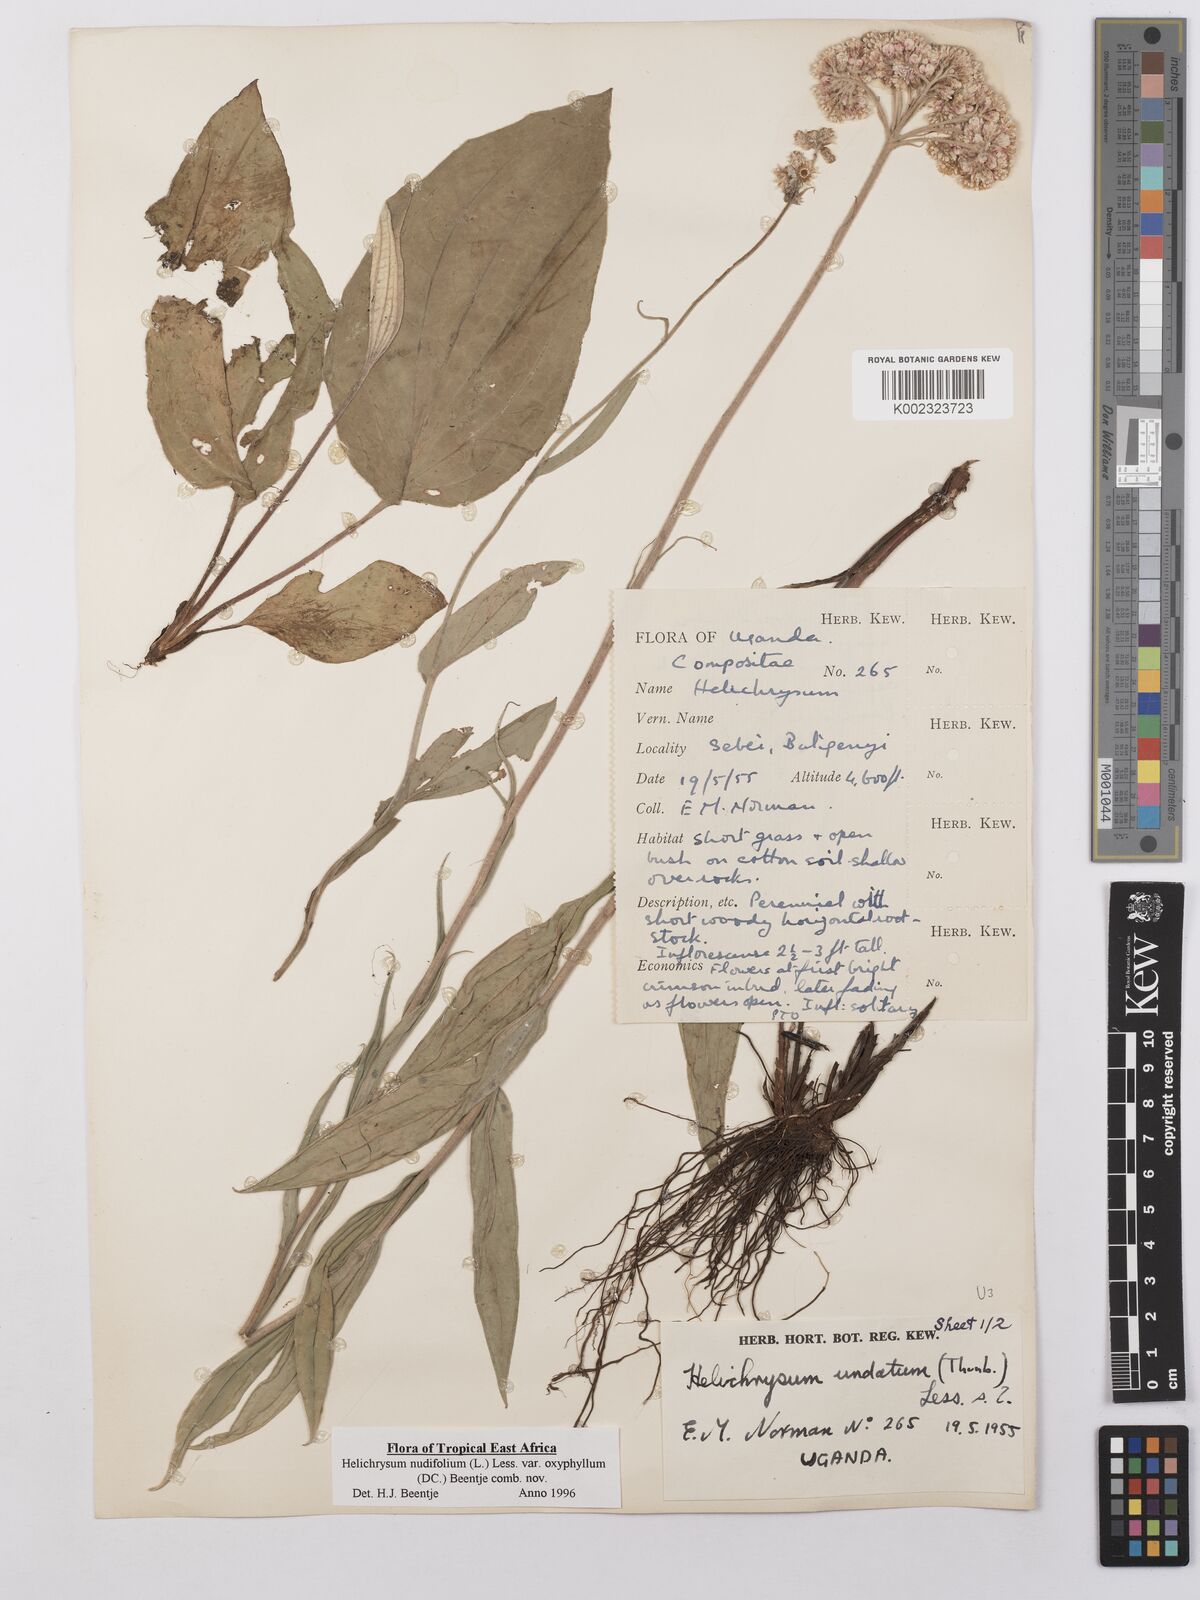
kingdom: Plantae
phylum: Tracheophyta
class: Magnoliopsida
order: Asterales
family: Asteraceae
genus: Helichrysum
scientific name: Helichrysum nudifolium
